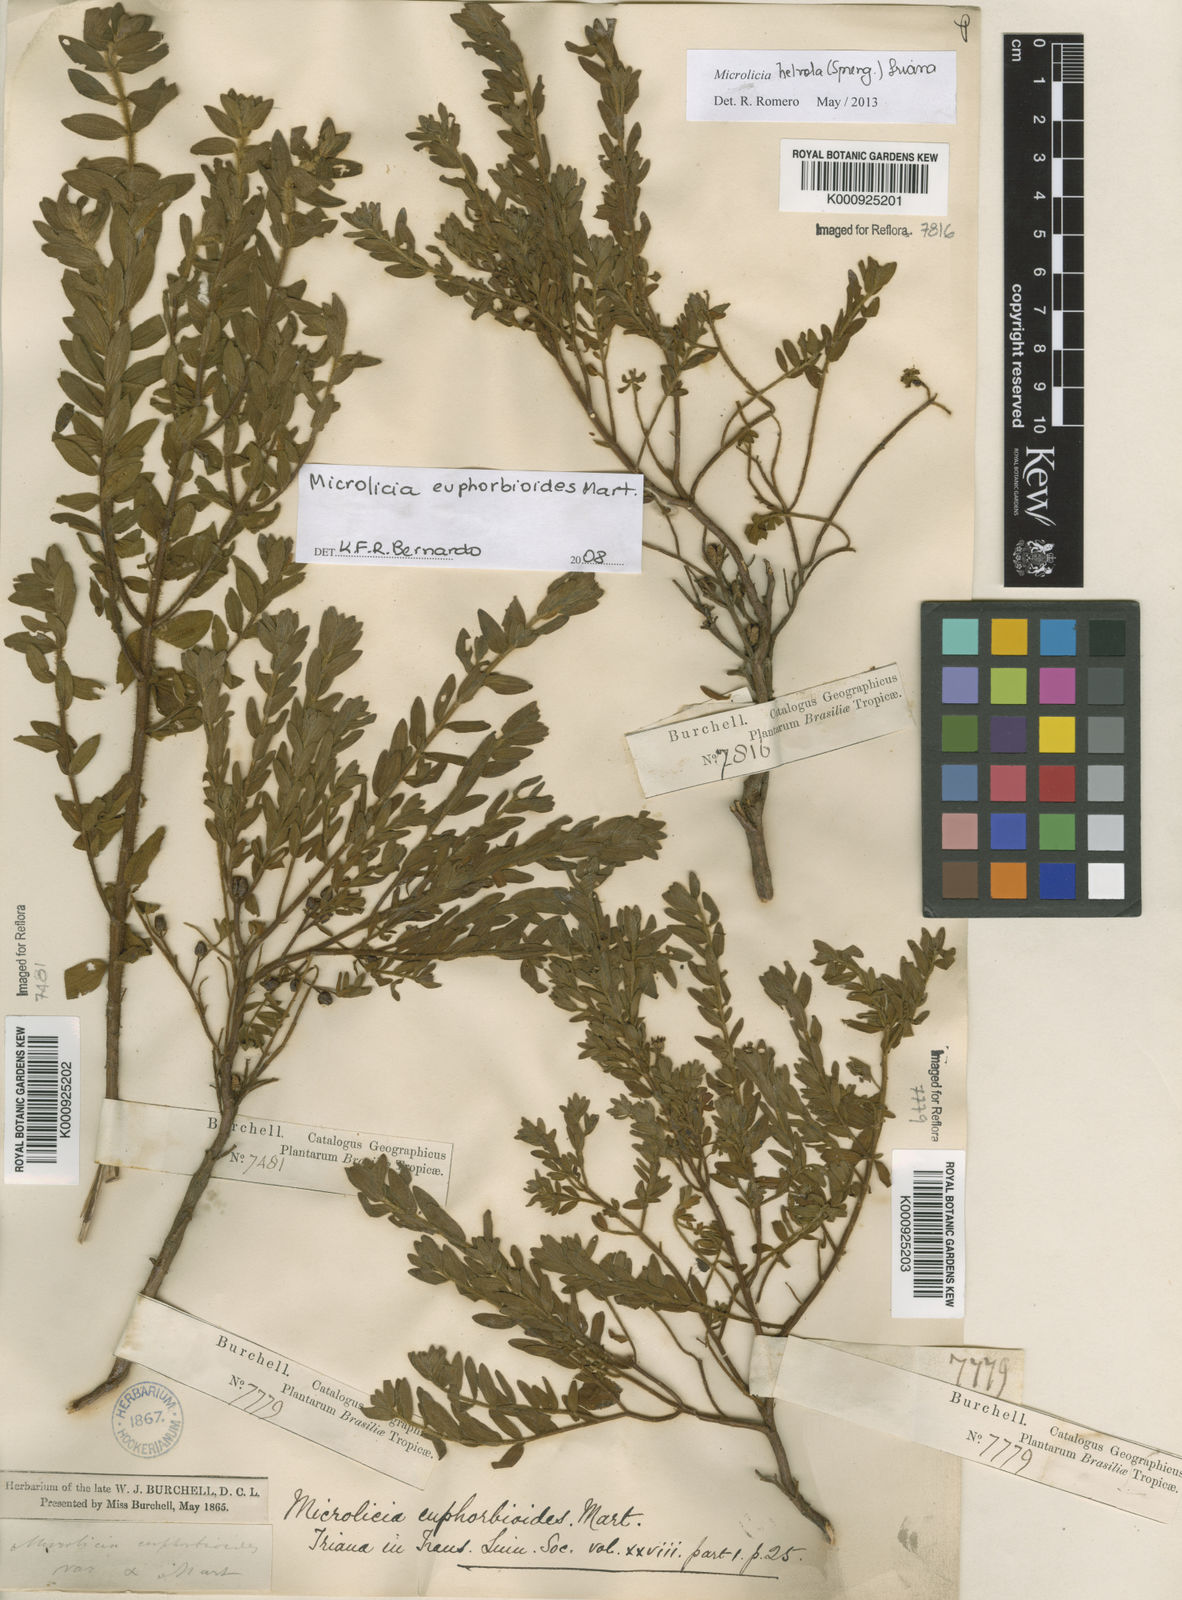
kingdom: Plantae
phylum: Tracheophyta
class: Magnoliopsida
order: Myrtales
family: Melastomataceae
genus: Microlicia
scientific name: Microlicia helvola
